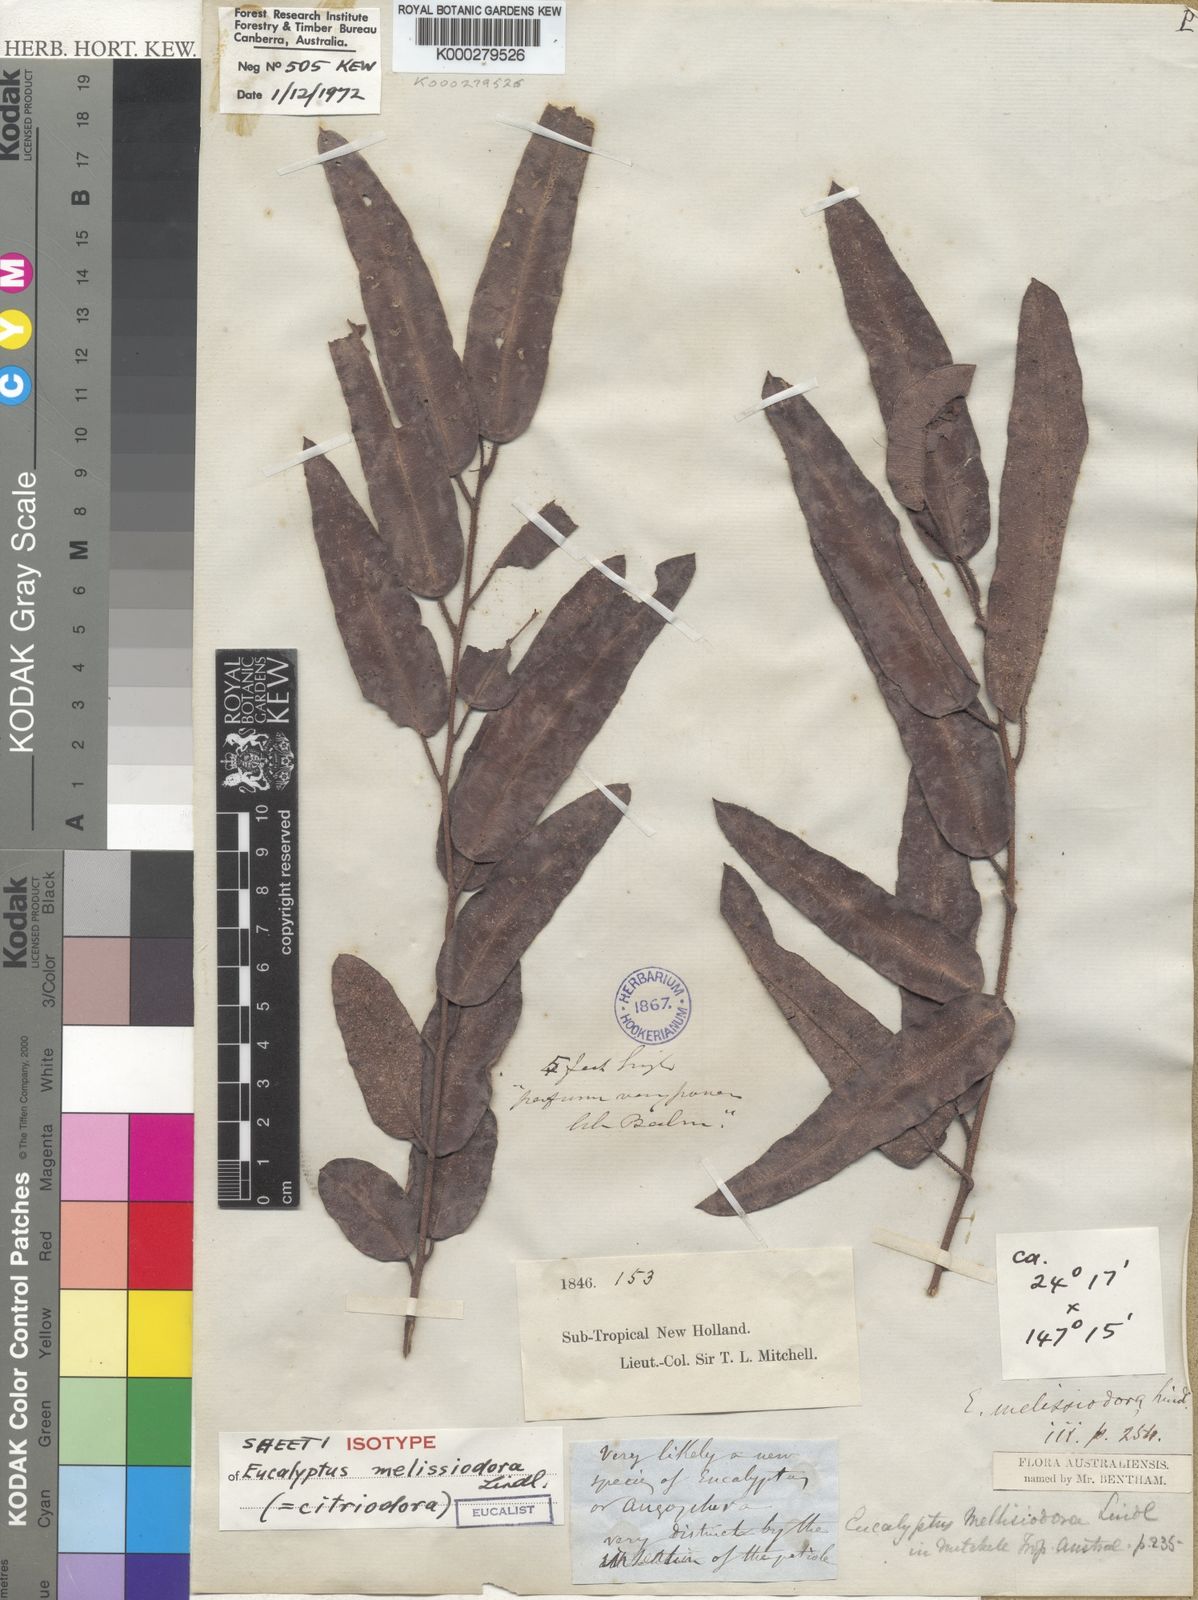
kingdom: Plantae
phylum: Tracheophyta
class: Magnoliopsida
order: Myrtales
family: Myrtaceae
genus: Corymbia
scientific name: Corymbia citriodora
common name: Lemonscented gum
